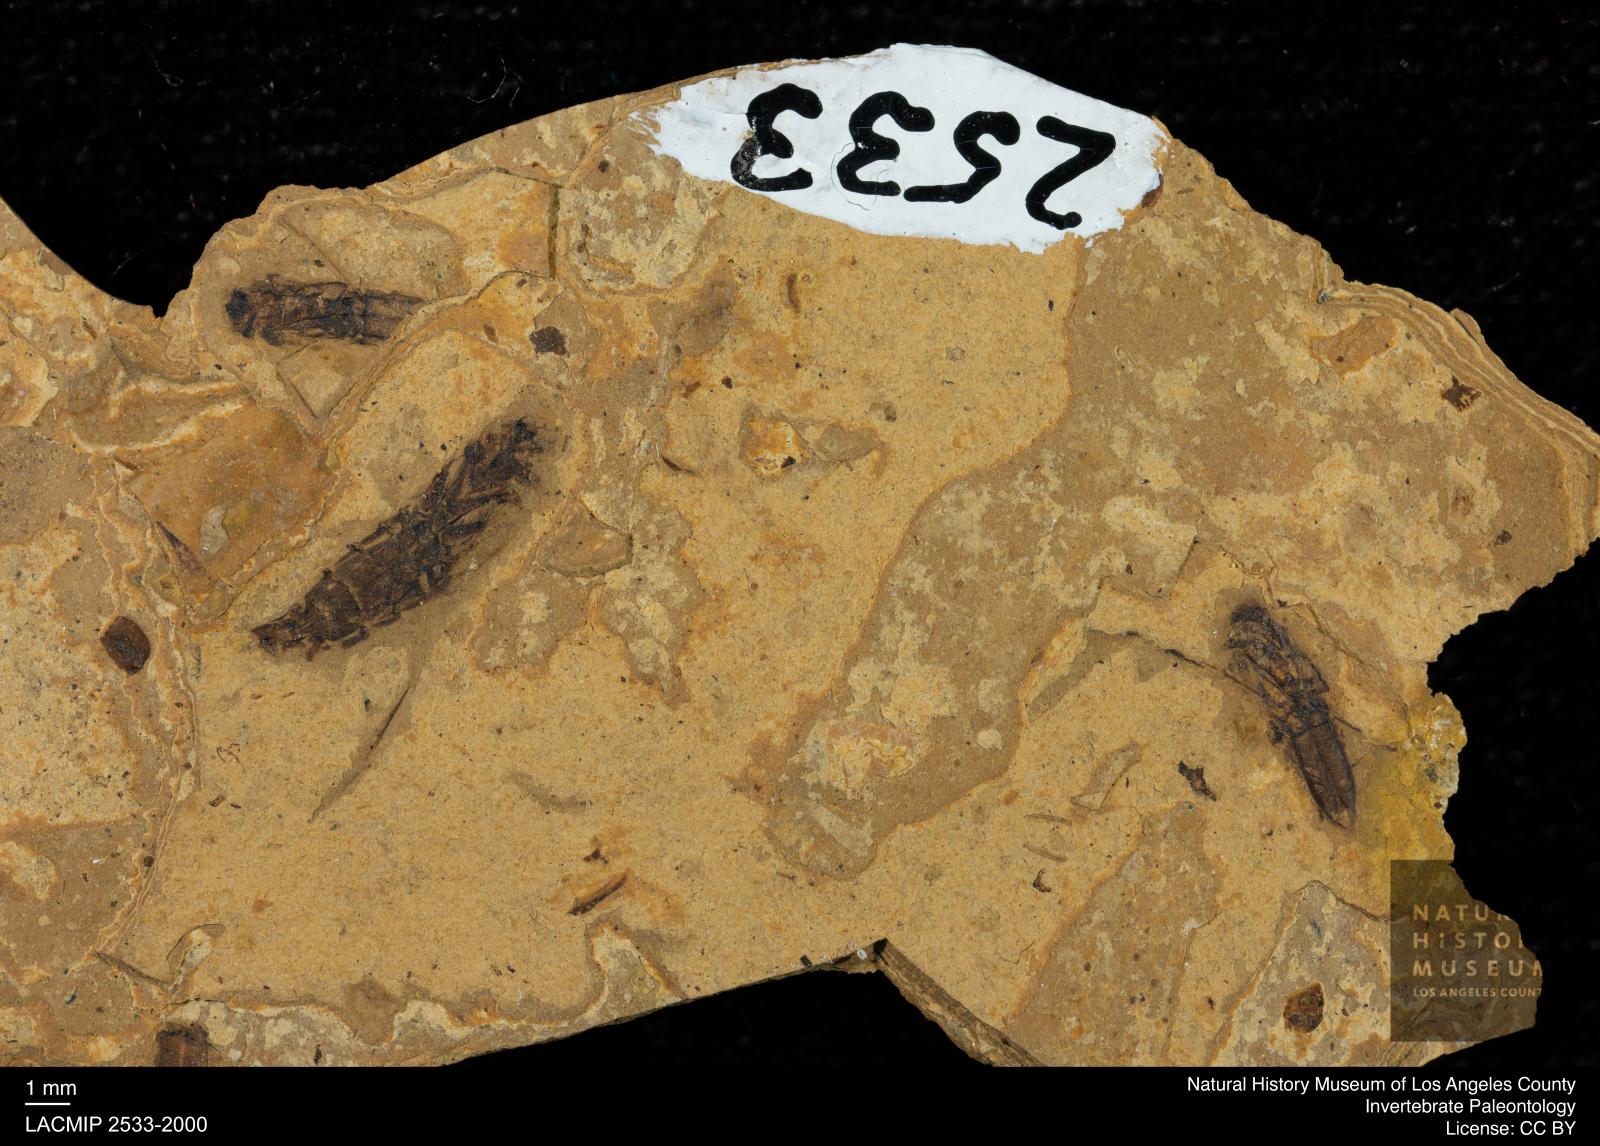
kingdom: Animalia
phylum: Arthropoda
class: Insecta
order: Hemiptera
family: Notonectidae
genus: Notonecta
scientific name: Notonecta
